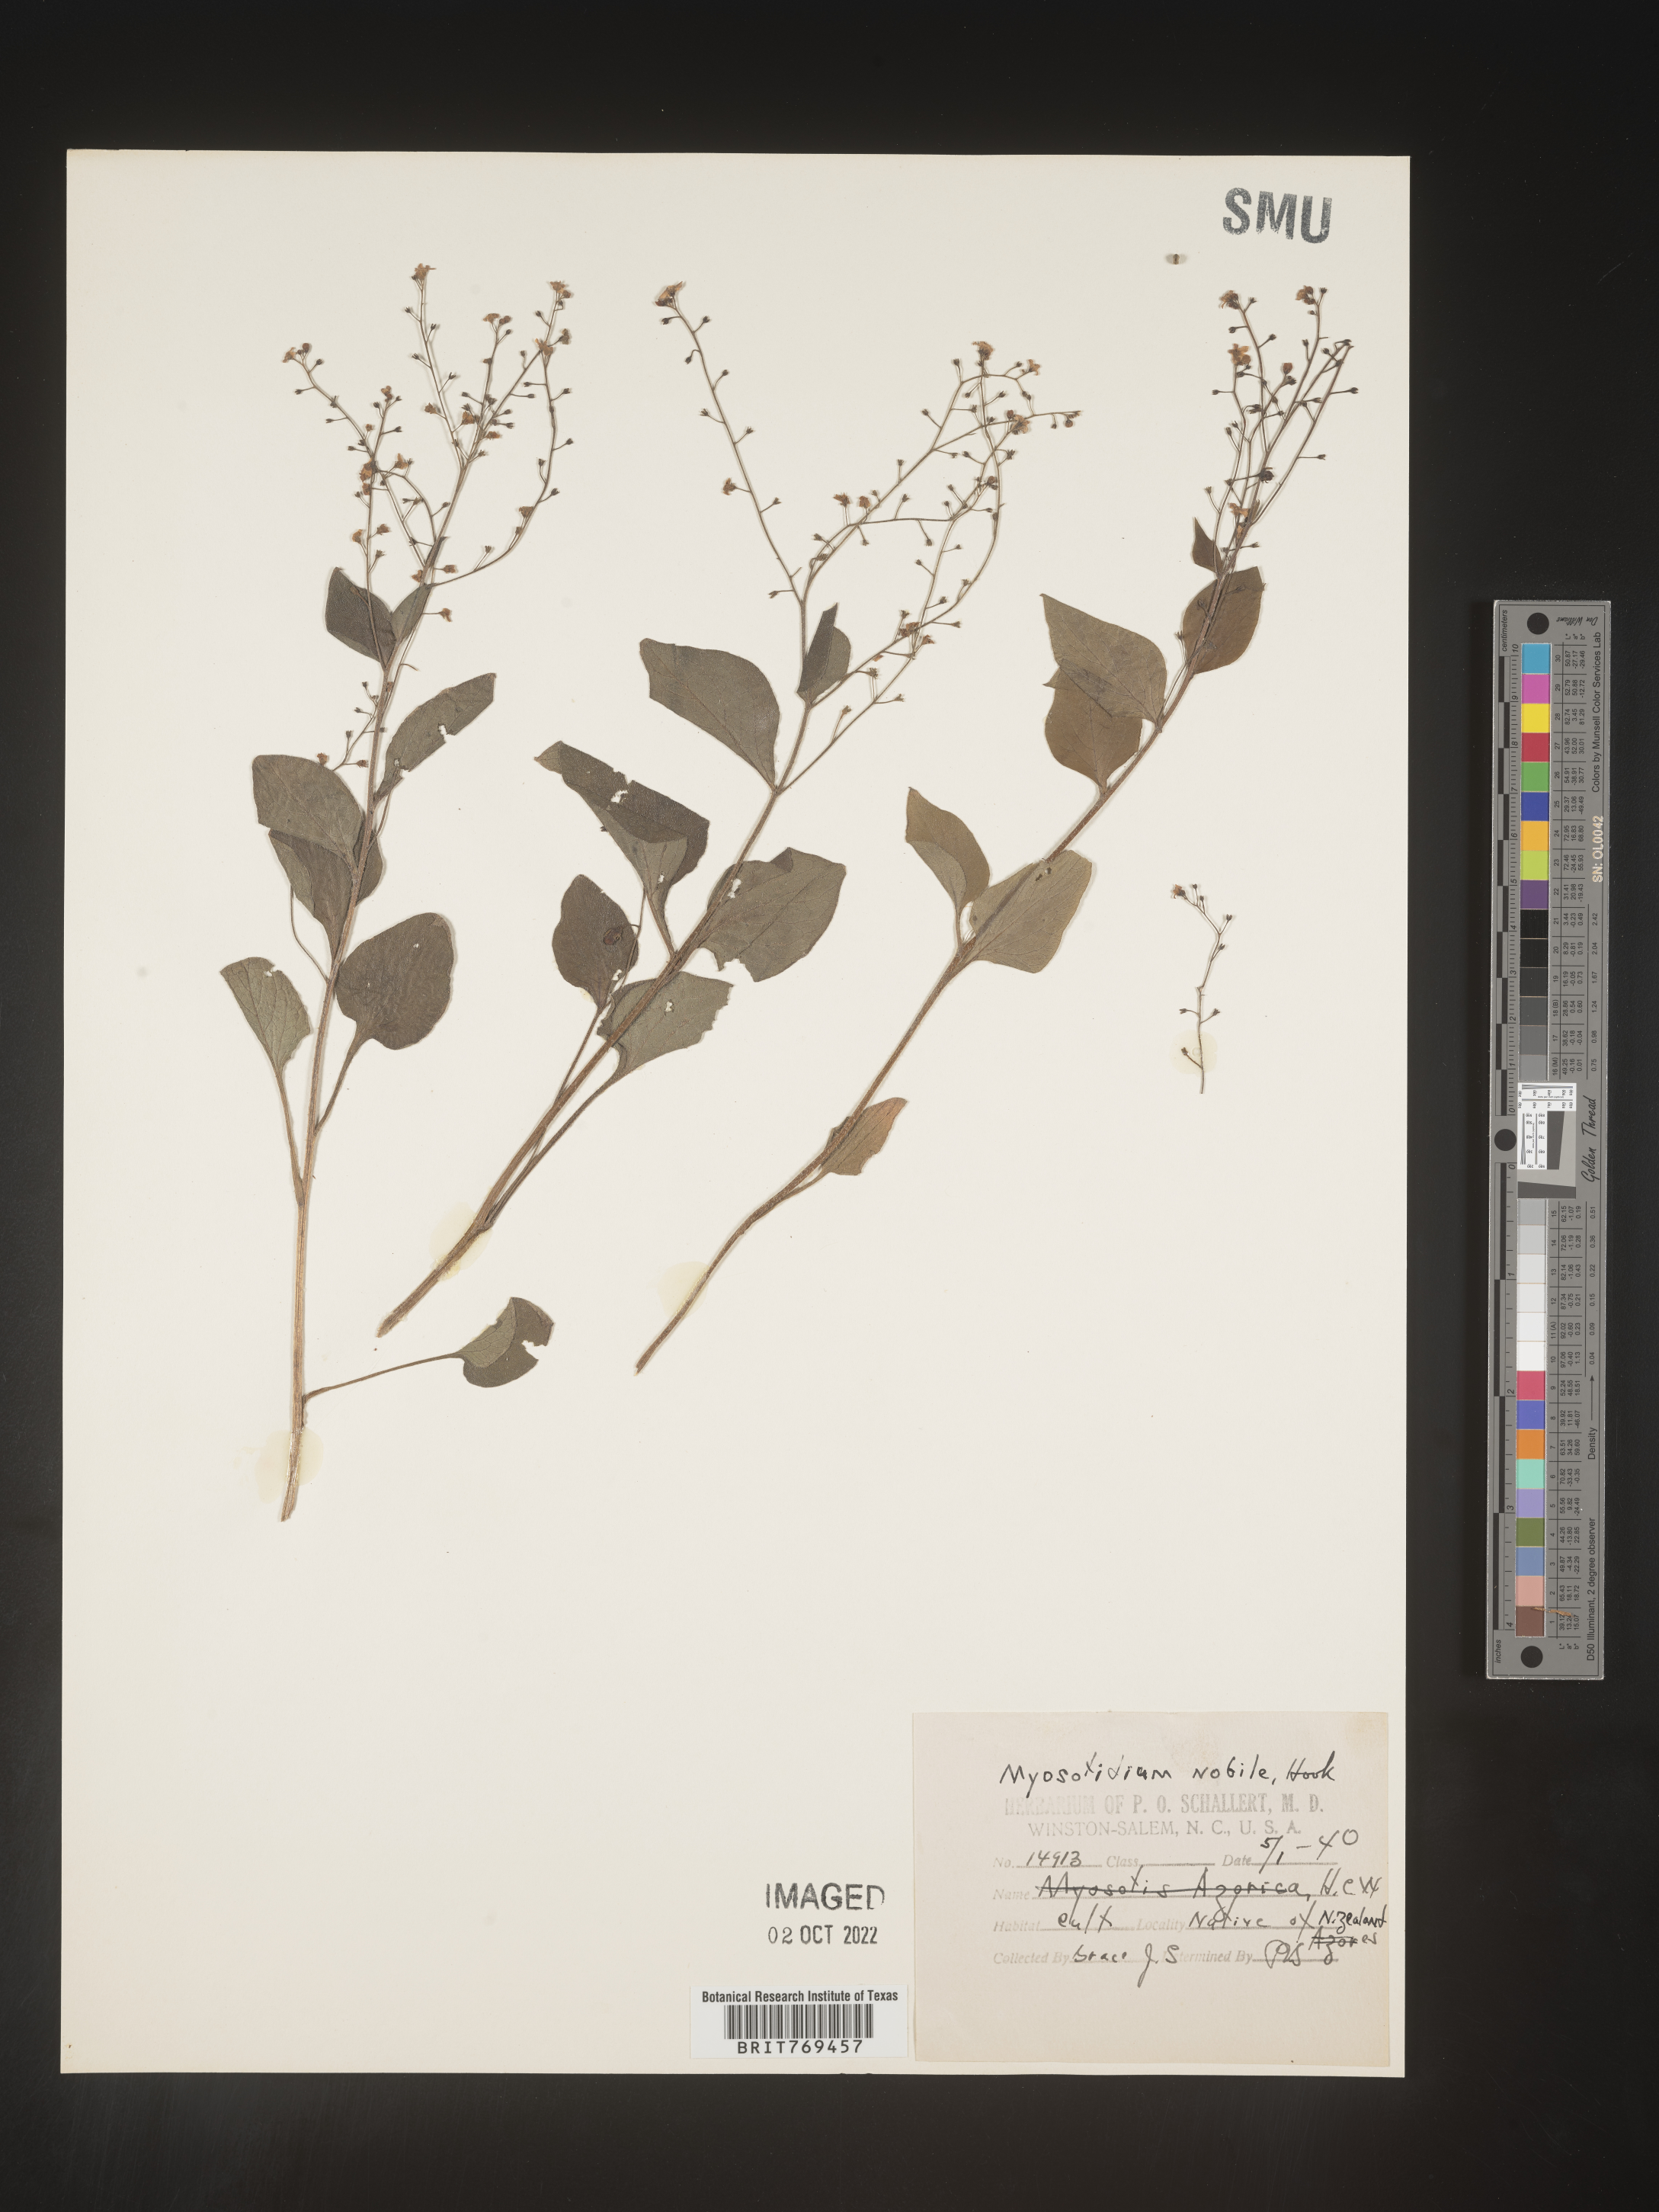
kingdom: Plantae
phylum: Tracheophyta
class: Magnoliopsida
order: Boraginales
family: Boraginaceae
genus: Myosotidium
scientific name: Myosotidium hortensia
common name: Giant forget-me-not
